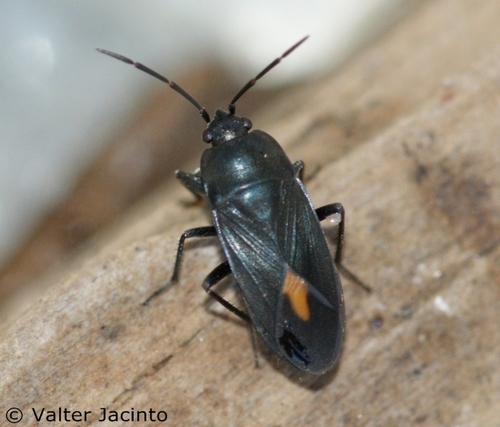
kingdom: Animalia
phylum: Arthropoda
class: Insecta
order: Hemiptera
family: Rhyparochromidae
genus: Aphanus
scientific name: Aphanus rolandri
